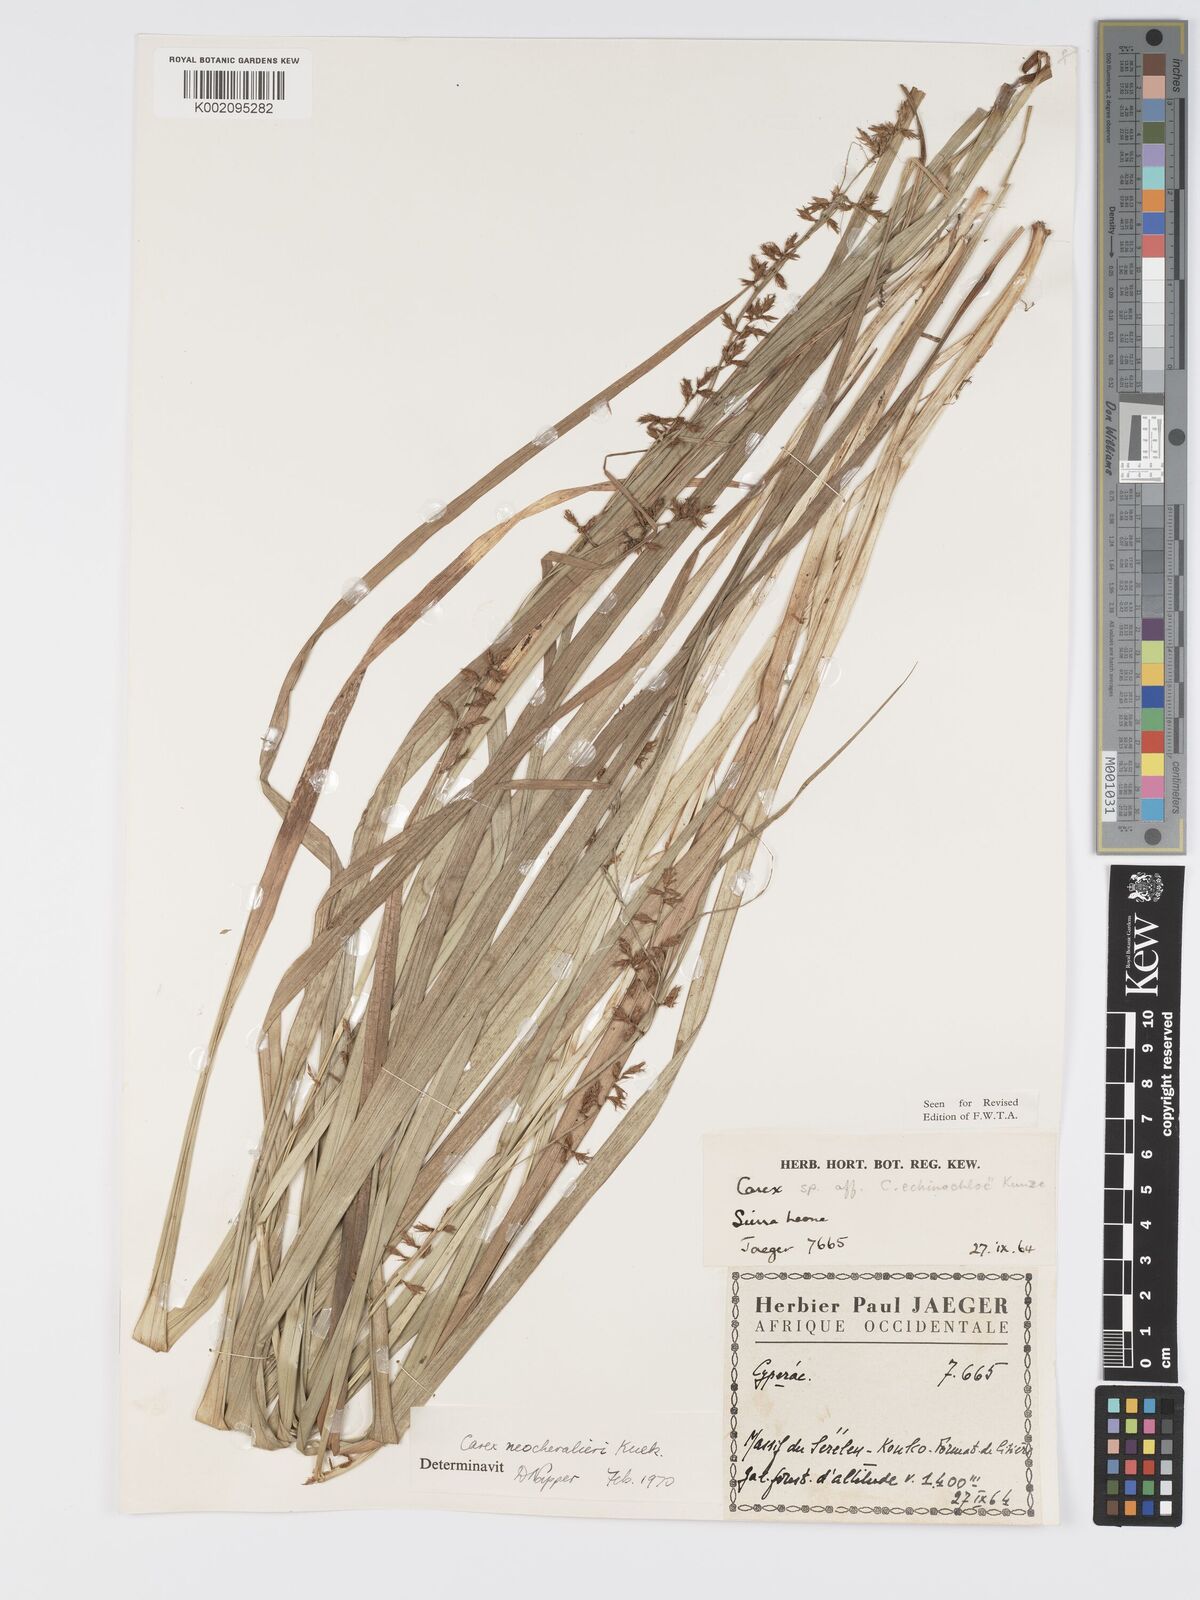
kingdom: Plantae
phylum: Tracheophyta
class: Liliopsida
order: Poales
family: Cyperaceae
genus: Carex
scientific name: Carex neochevalieri
